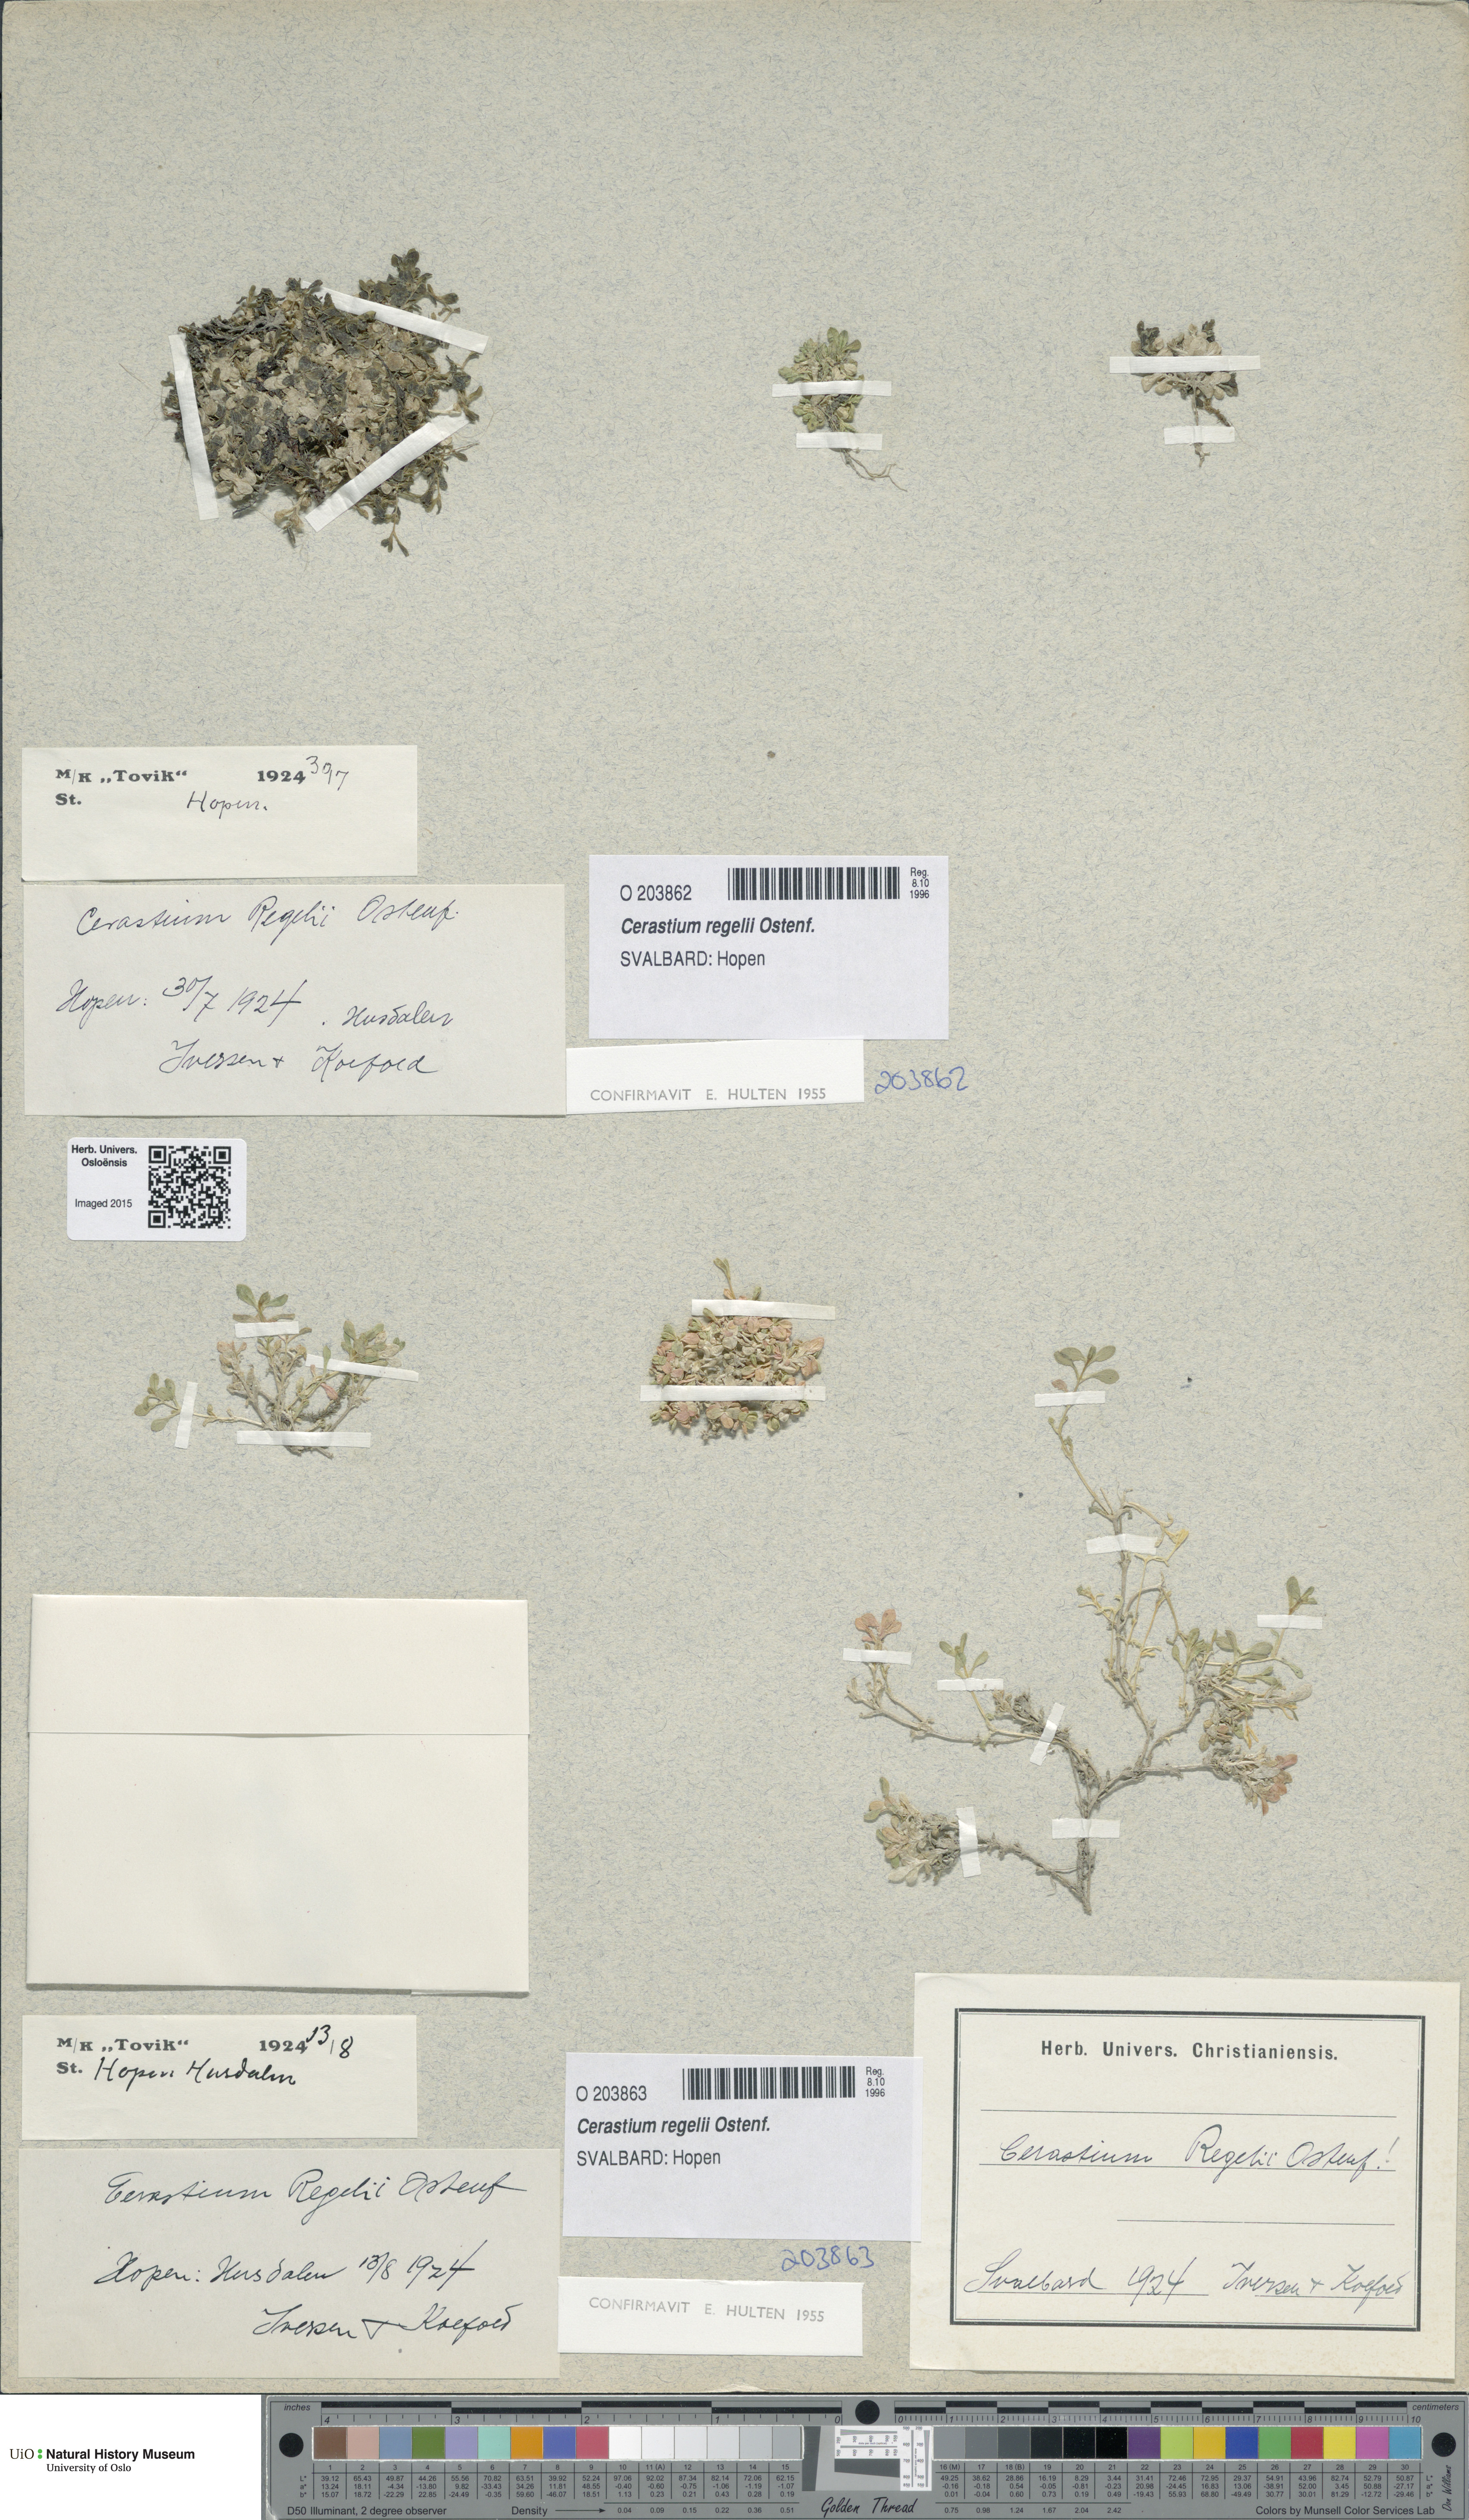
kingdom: Plantae
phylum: Tracheophyta
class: Magnoliopsida
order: Caryophyllales
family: Caryophyllaceae
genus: Cerastium
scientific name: Cerastium regelii
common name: Regel's chickweed
